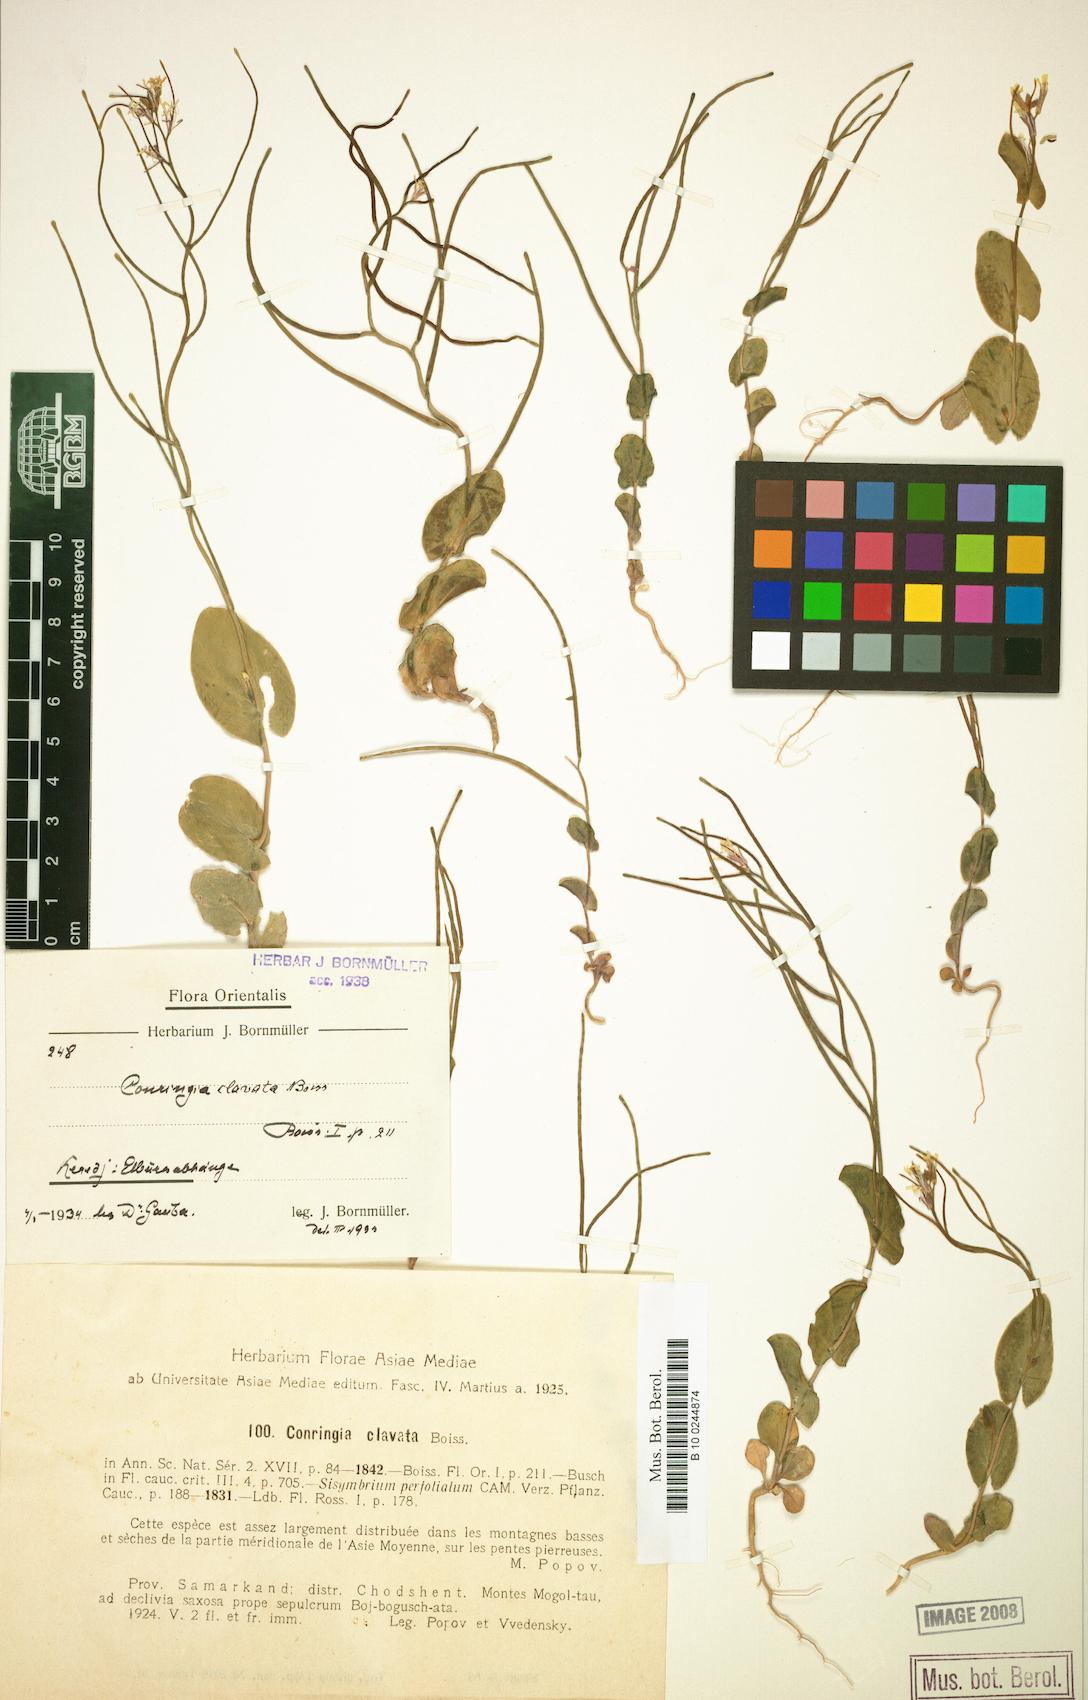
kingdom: Plantae
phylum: Tracheophyta
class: Magnoliopsida
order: Brassicales
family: Brassicaceae
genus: Conringia
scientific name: Conringia clavata
